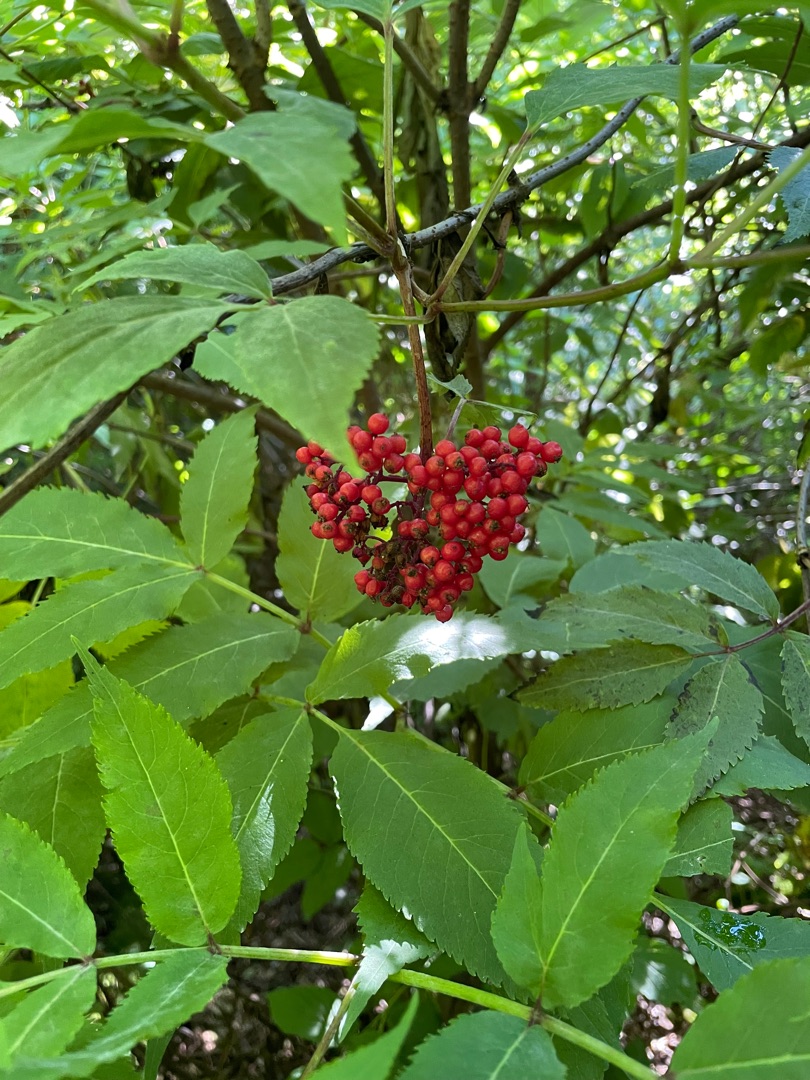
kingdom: Plantae
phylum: Tracheophyta
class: Magnoliopsida
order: Dipsacales
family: Viburnaceae
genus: Sambucus
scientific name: Sambucus racemosa
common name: Drue-hyld
